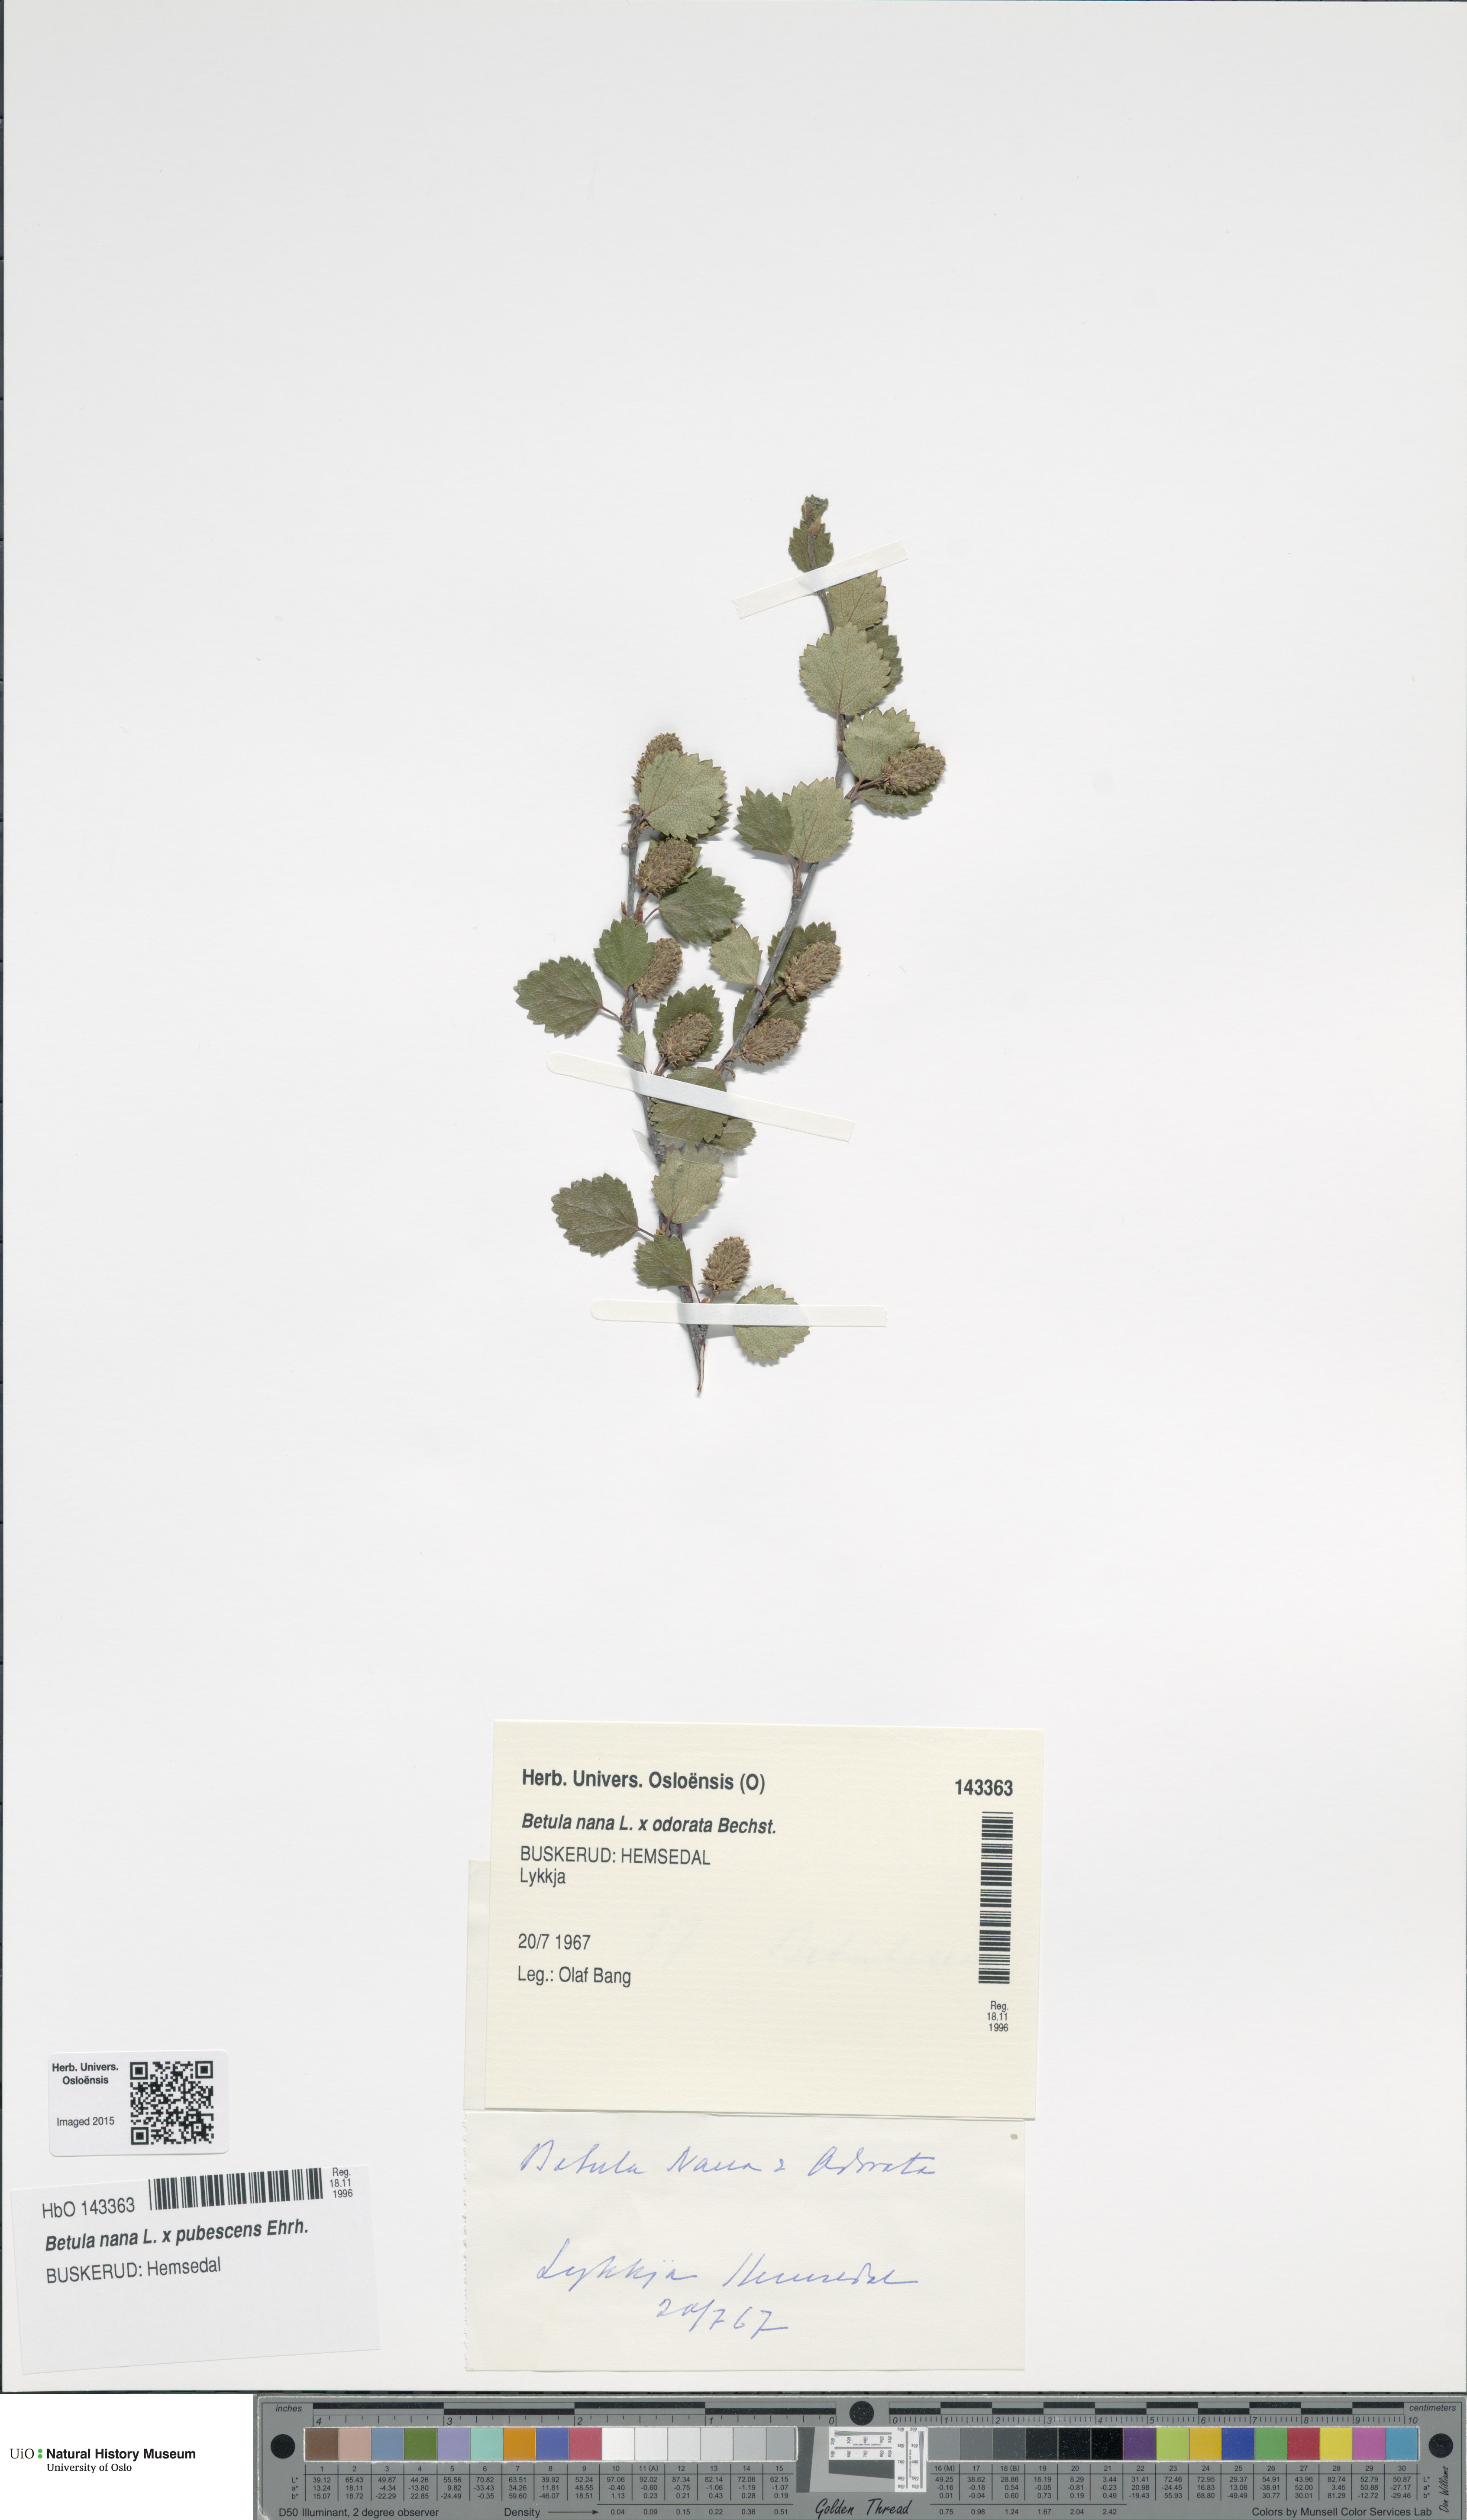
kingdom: Plantae
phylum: Tracheophyta
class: Magnoliopsida
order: Fagales
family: Betulaceae
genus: Betula
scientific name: Betula
